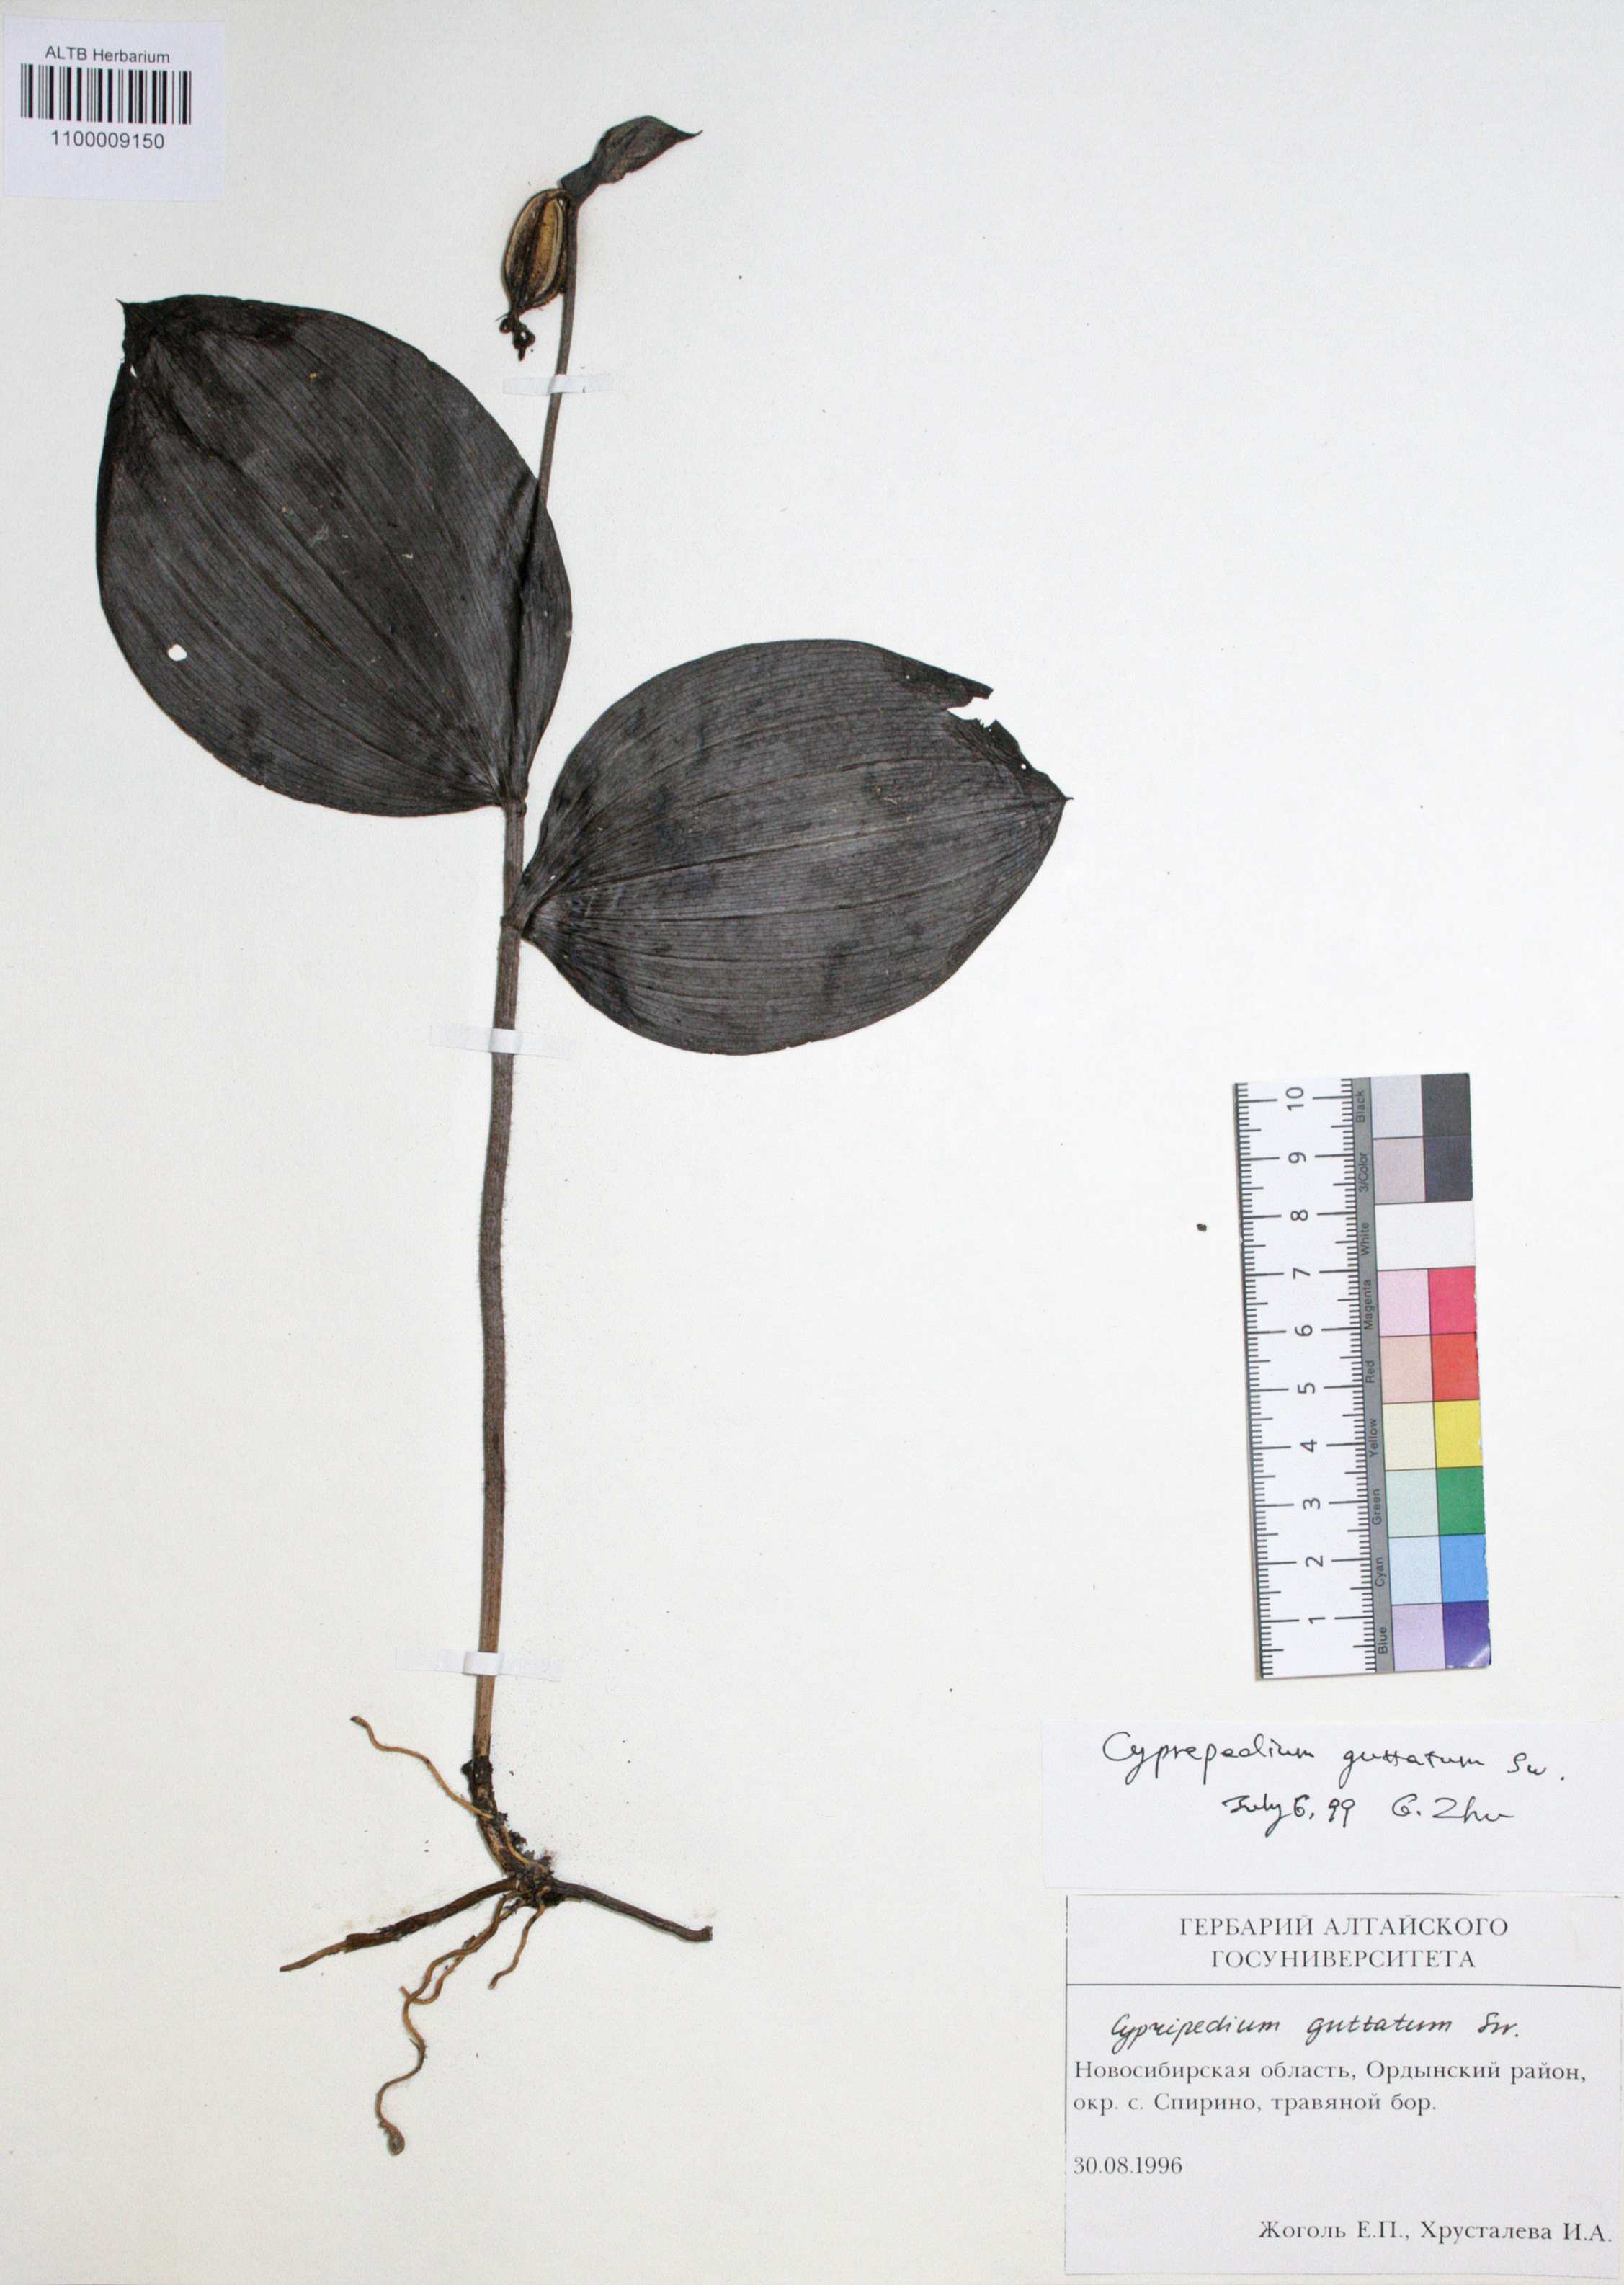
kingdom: Plantae
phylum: Tracheophyta
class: Liliopsida
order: Asparagales
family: Orchidaceae
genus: Cypripedium
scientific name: Cypripedium guttatum
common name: Pink lady slipper
